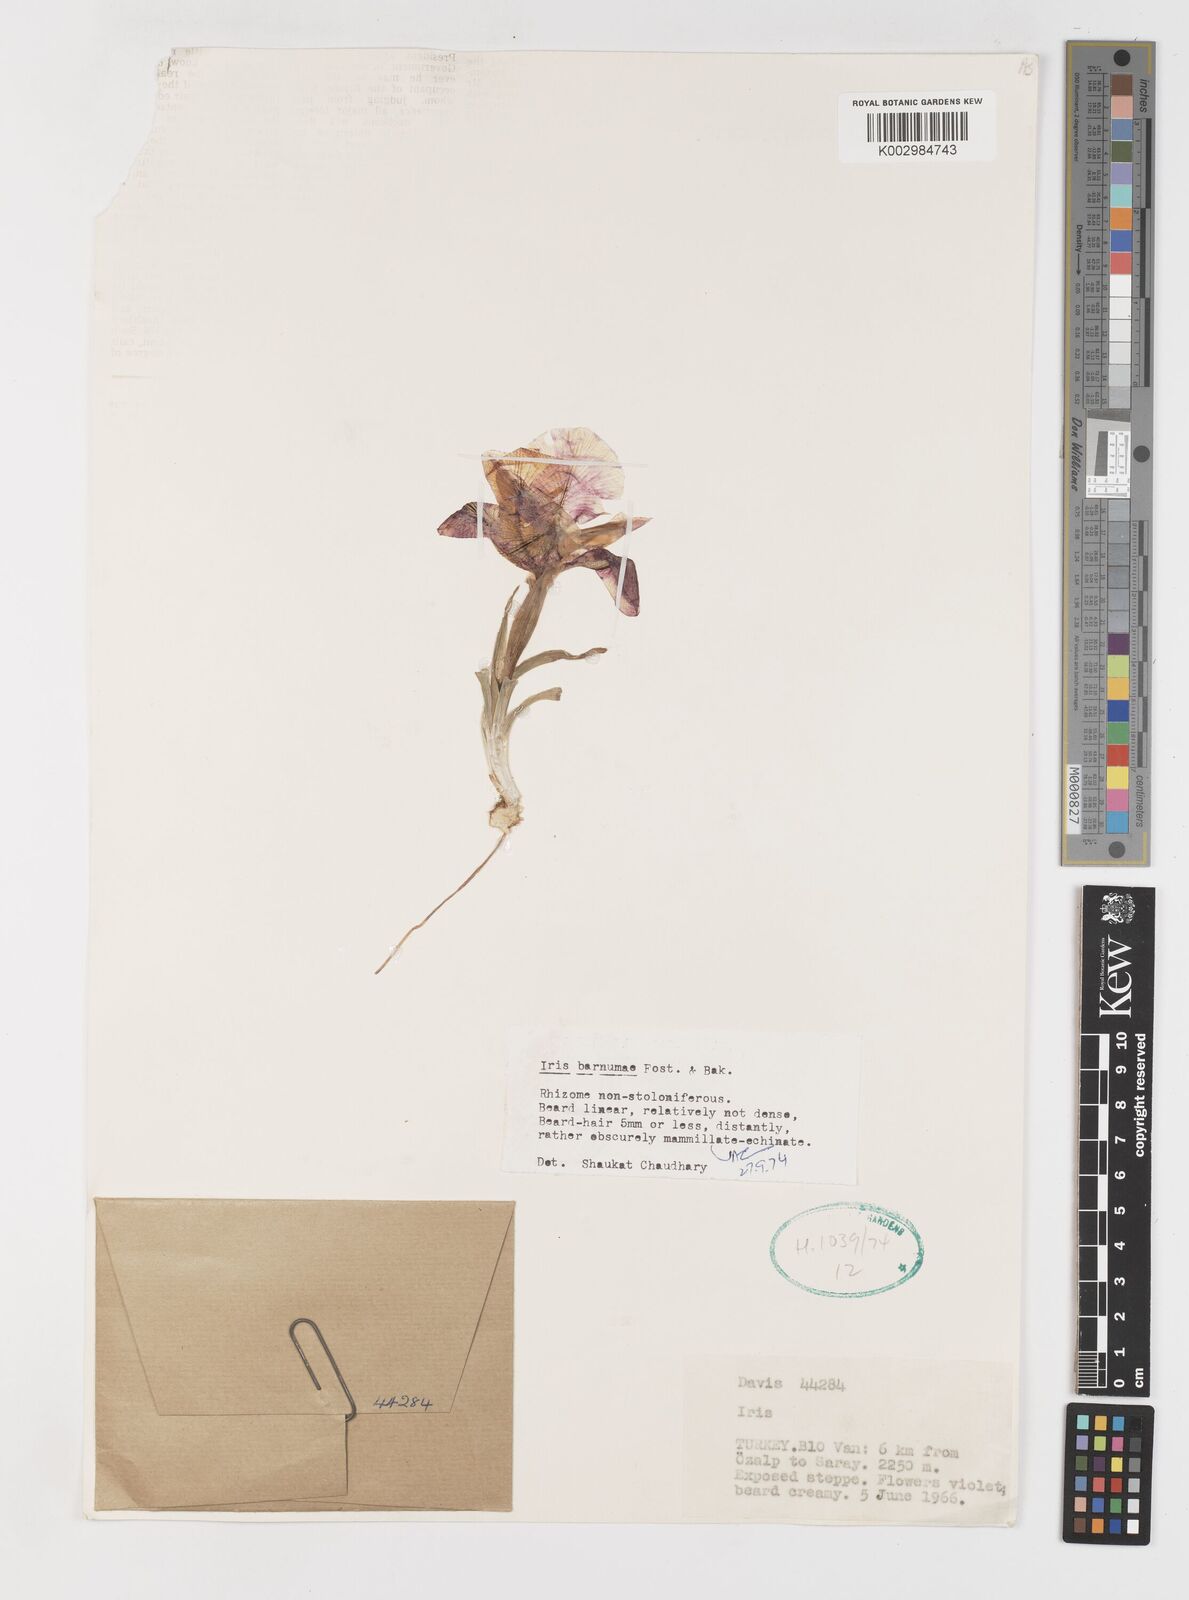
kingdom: Plantae
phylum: Tracheophyta
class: Liliopsida
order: Asparagales
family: Iridaceae
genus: Iris
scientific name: Iris barnumiae
